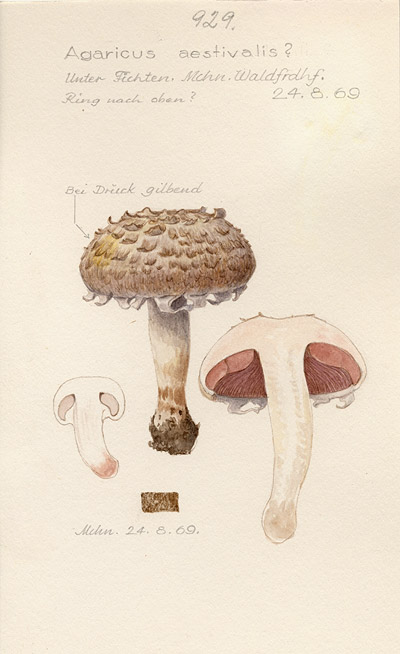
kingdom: Fungi
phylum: Basidiomycota
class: Agaricomycetes
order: Agaricales
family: Agaricaceae
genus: Agaricus
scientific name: Agaricus altipes
